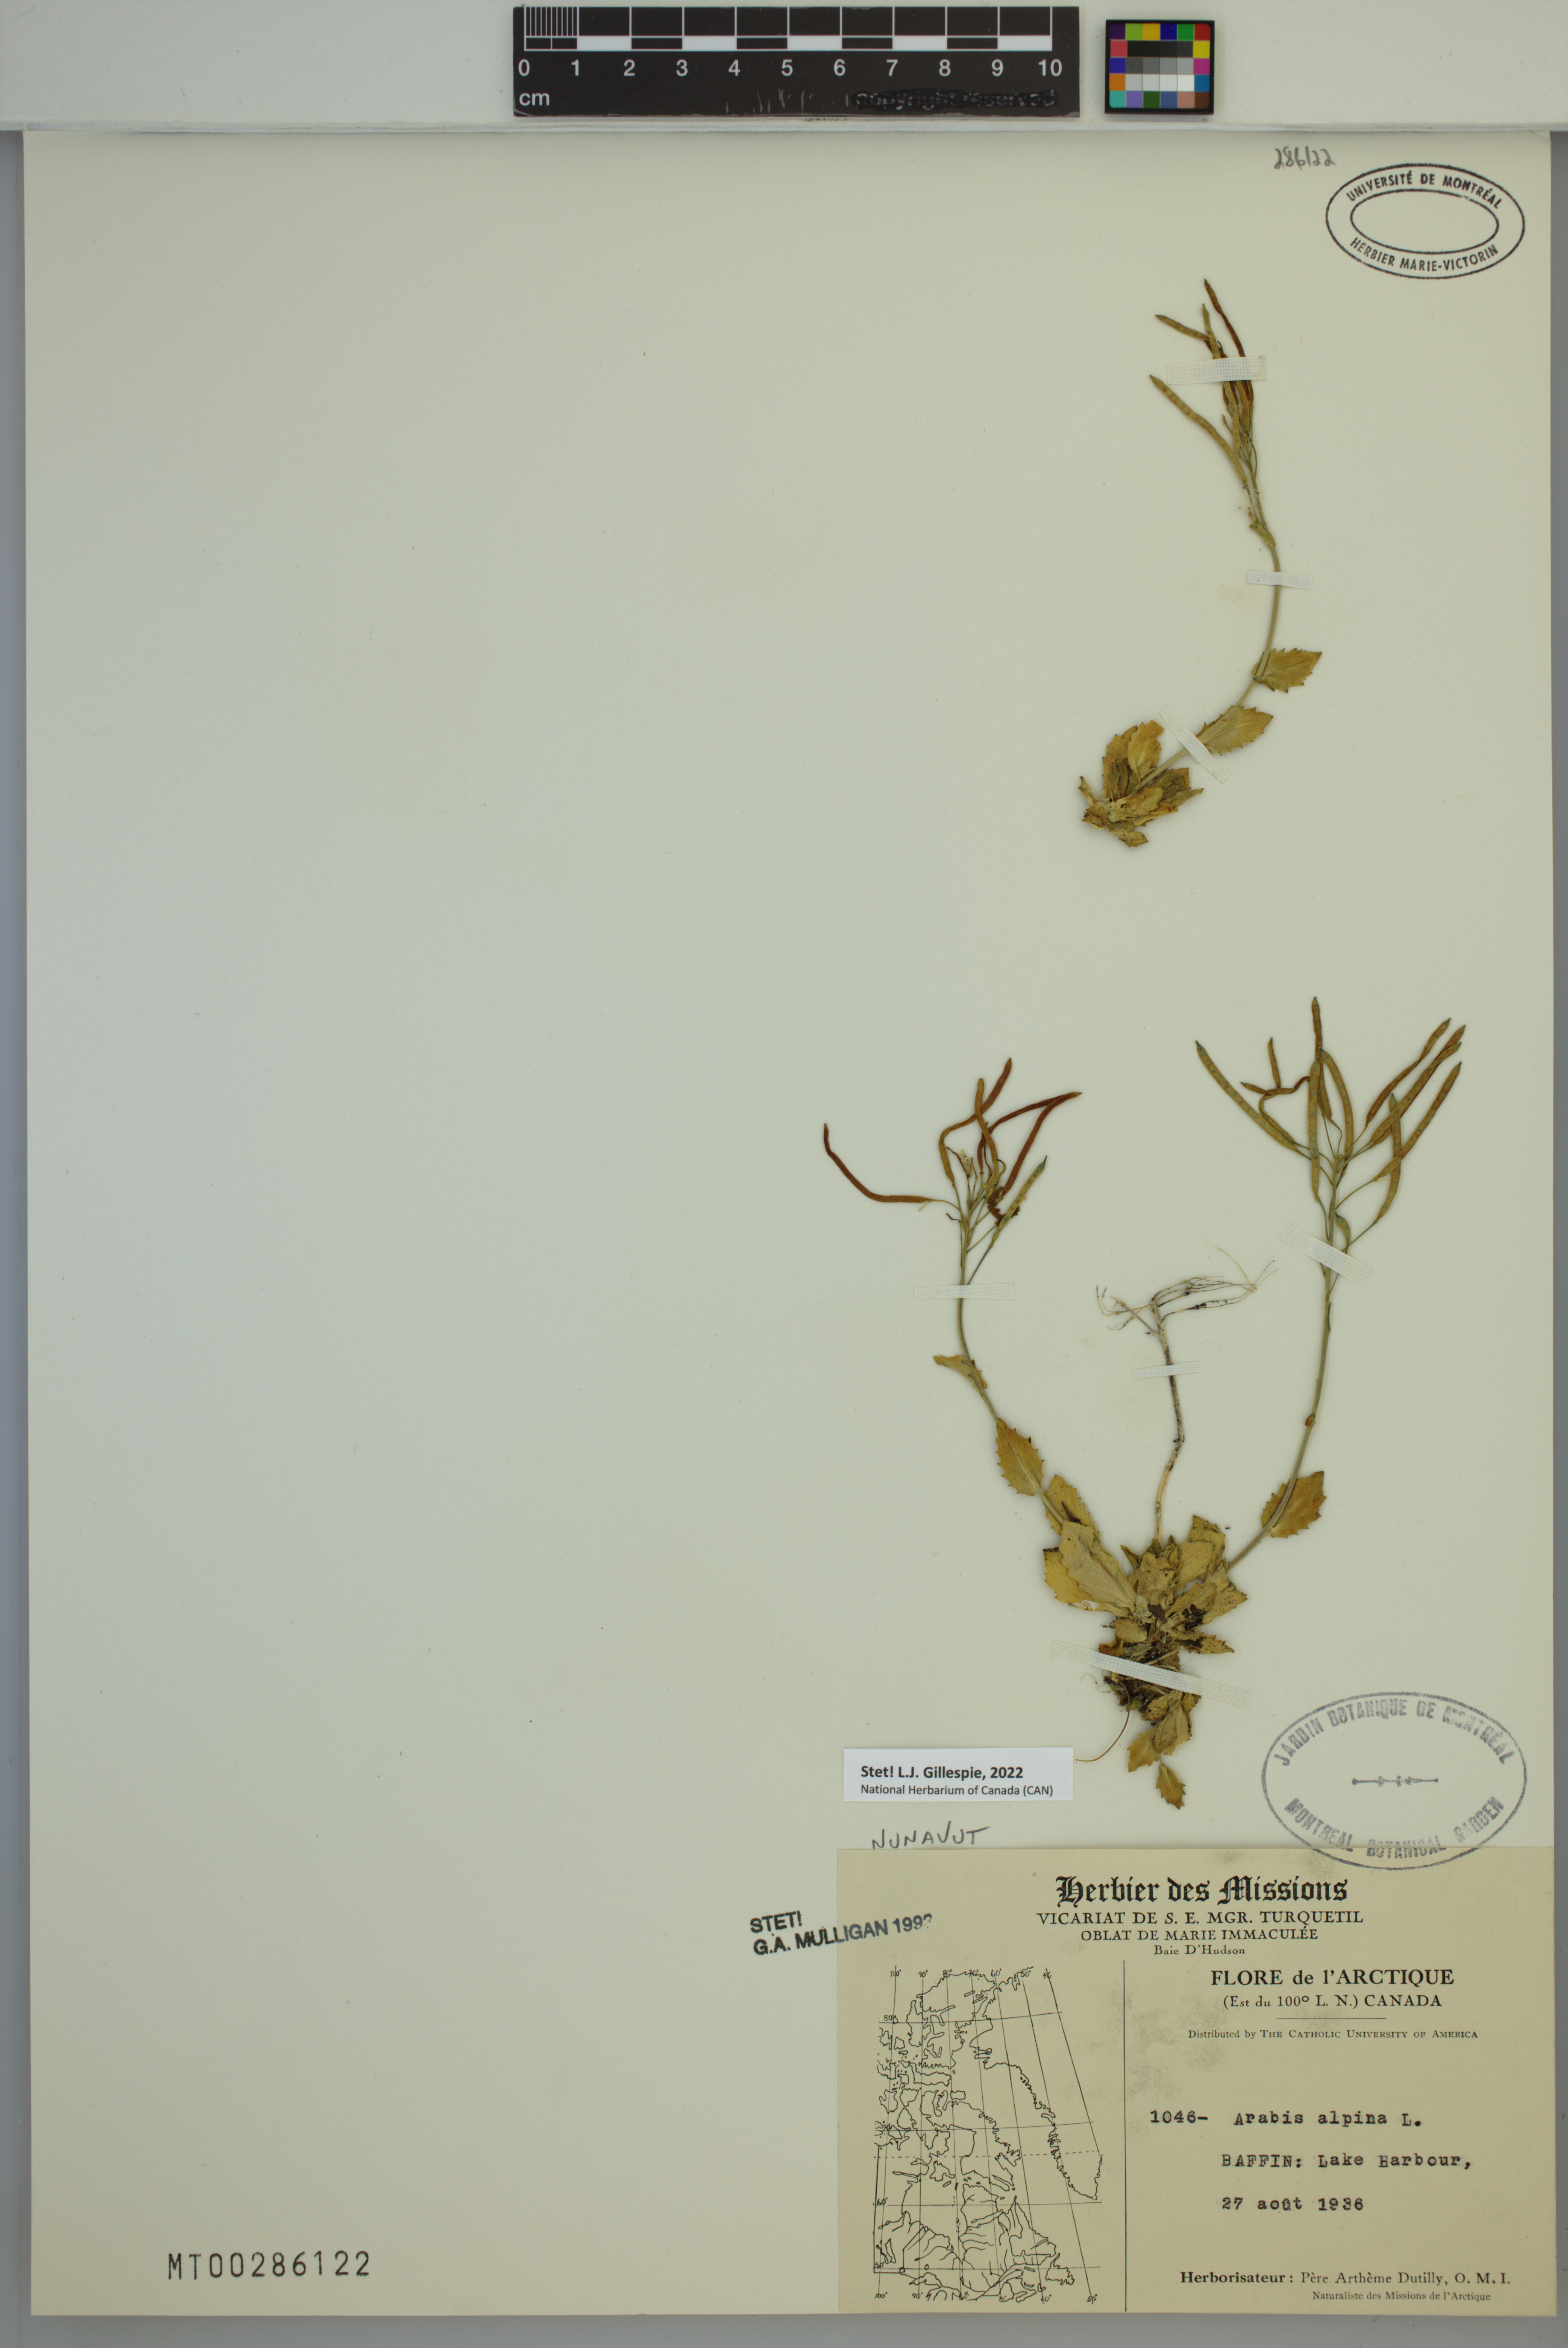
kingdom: Plantae
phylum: Tracheophyta
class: Magnoliopsida
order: Brassicales
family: Brassicaceae
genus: Arabis
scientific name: Arabis alpina
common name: Alpine rock-cress
